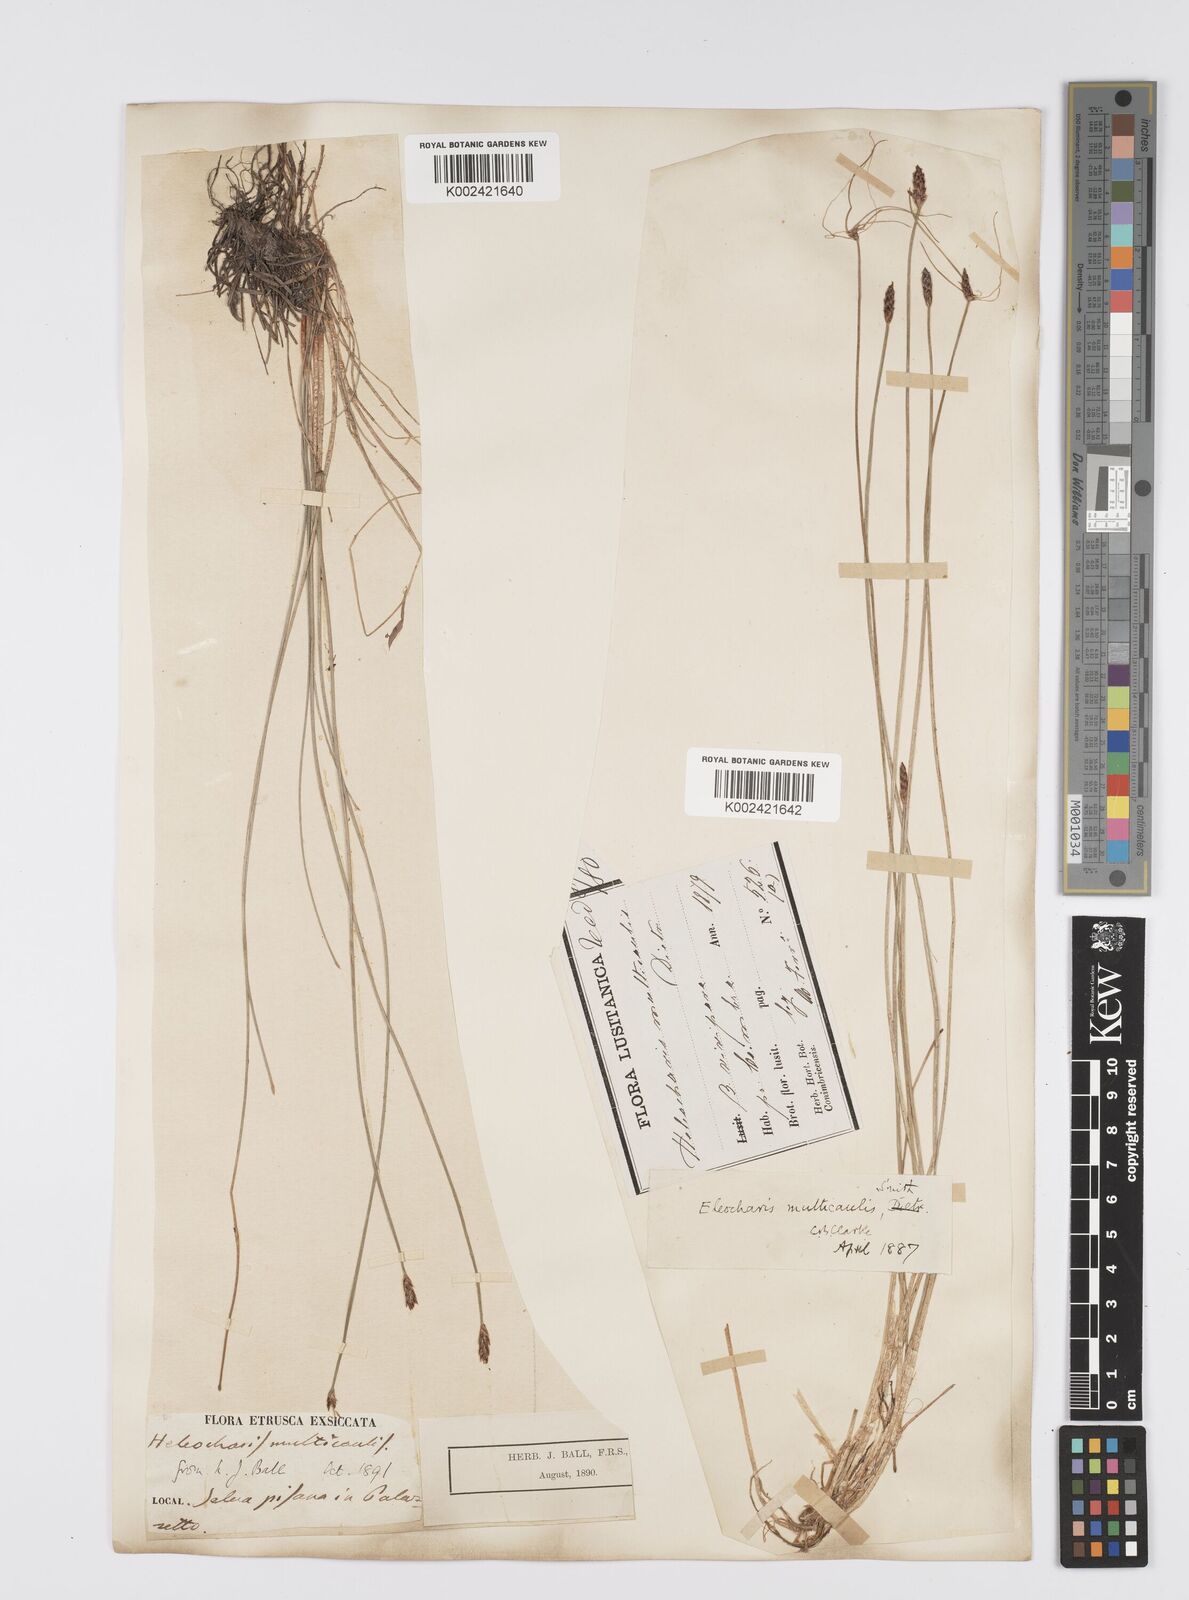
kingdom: Plantae
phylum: Tracheophyta
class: Liliopsida
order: Poales
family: Cyperaceae
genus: Eleocharis
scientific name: Eleocharis multicaulis
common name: Many-stalked spike-rush
